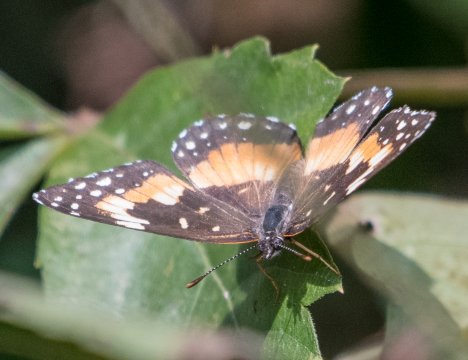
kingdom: Animalia
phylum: Arthropoda
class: Insecta
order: Lepidoptera
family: Nymphalidae
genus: Chlosyne
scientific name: Chlosyne lacinia
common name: Bordered Patch
